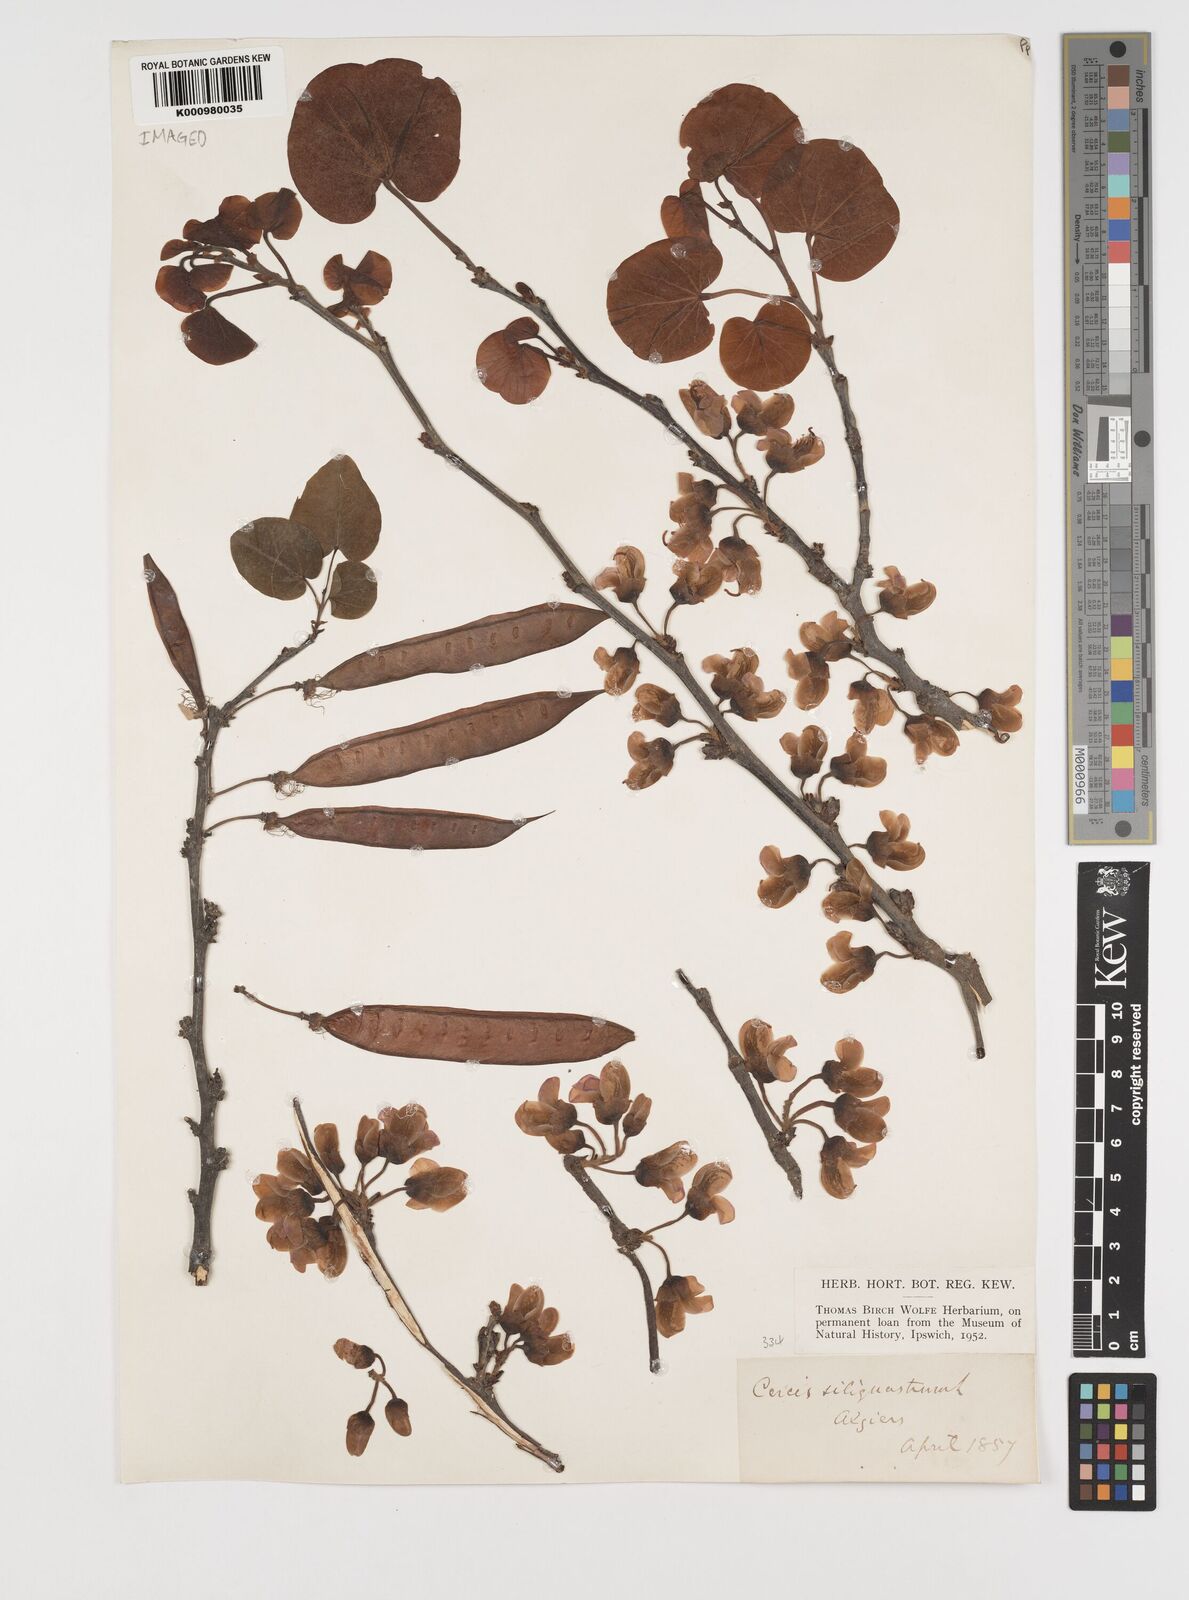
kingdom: Plantae
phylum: Tracheophyta
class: Magnoliopsida
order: Fabales
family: Fabaceae
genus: Cercis
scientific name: Cercis siliquastrum
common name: Judas tree
